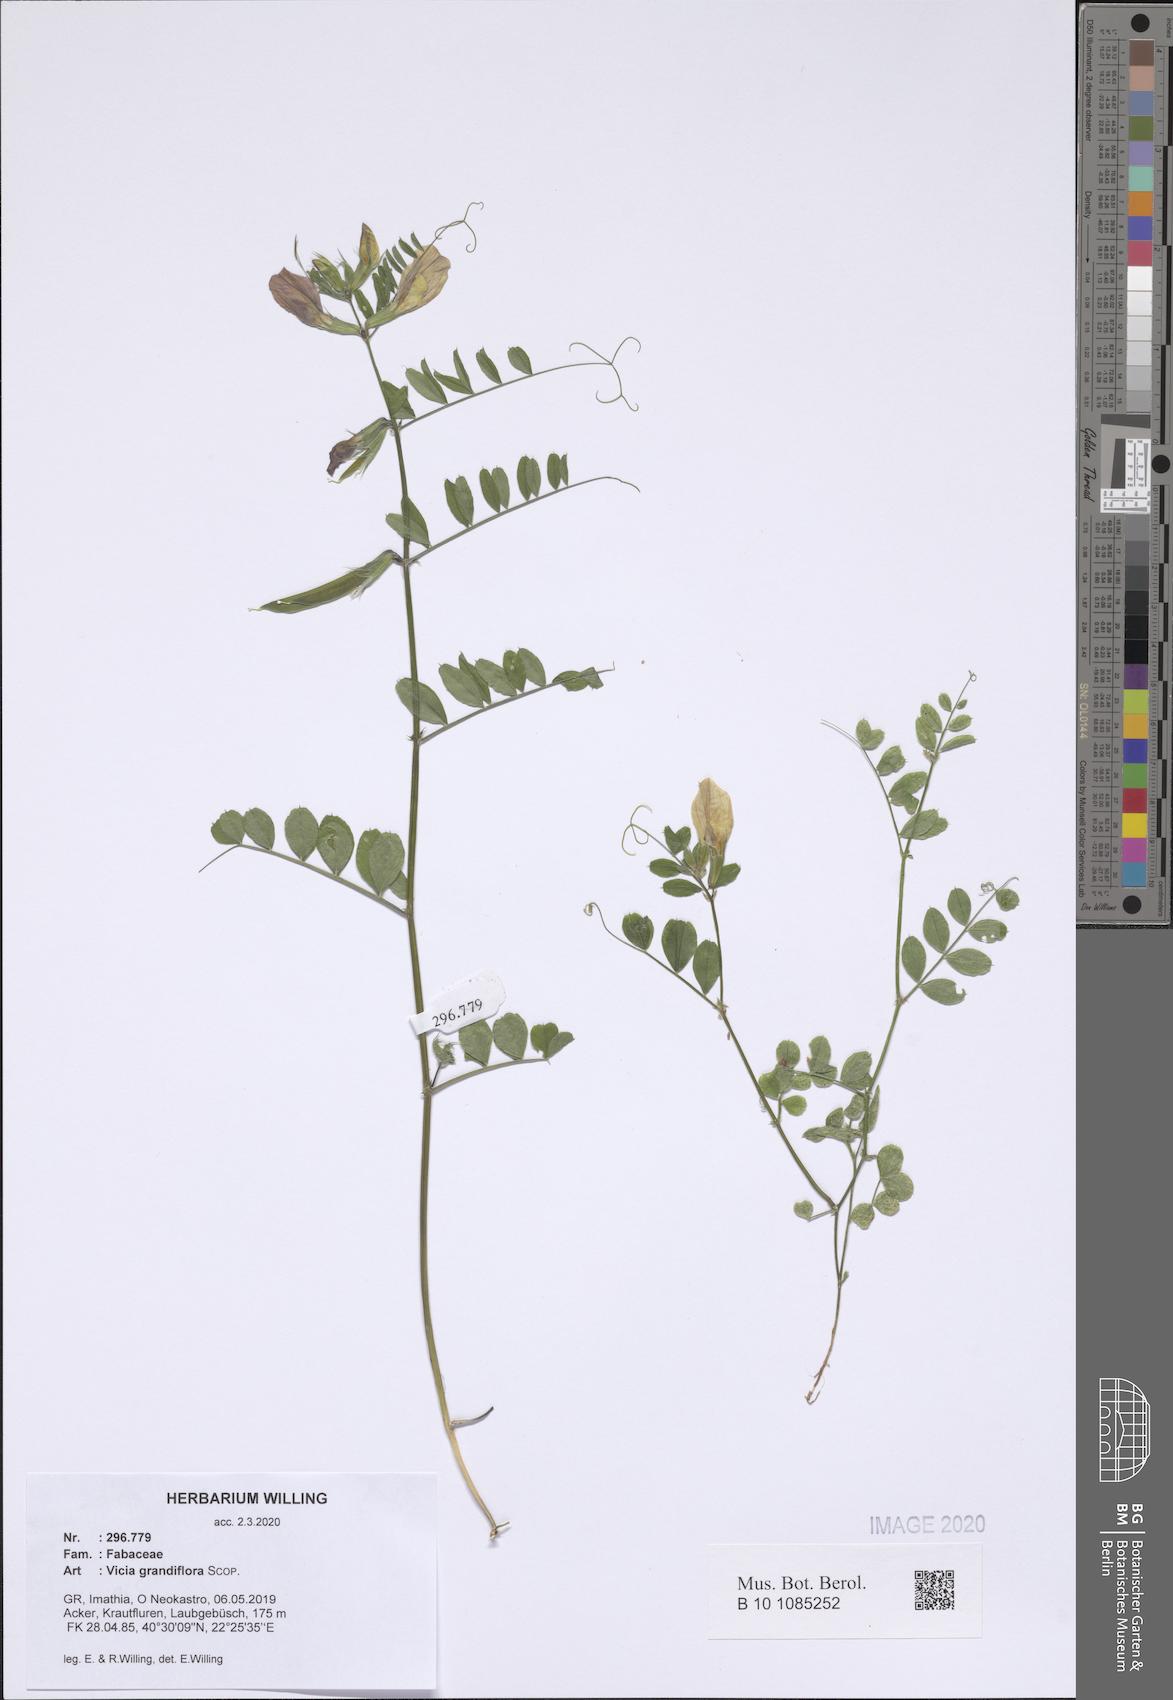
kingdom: Plantae
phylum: Tracheophyta
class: Magnoliopsida
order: Fabales
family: Fabaceae
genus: Vicia
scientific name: Vicia grandiflora
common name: Large yellow vetch
